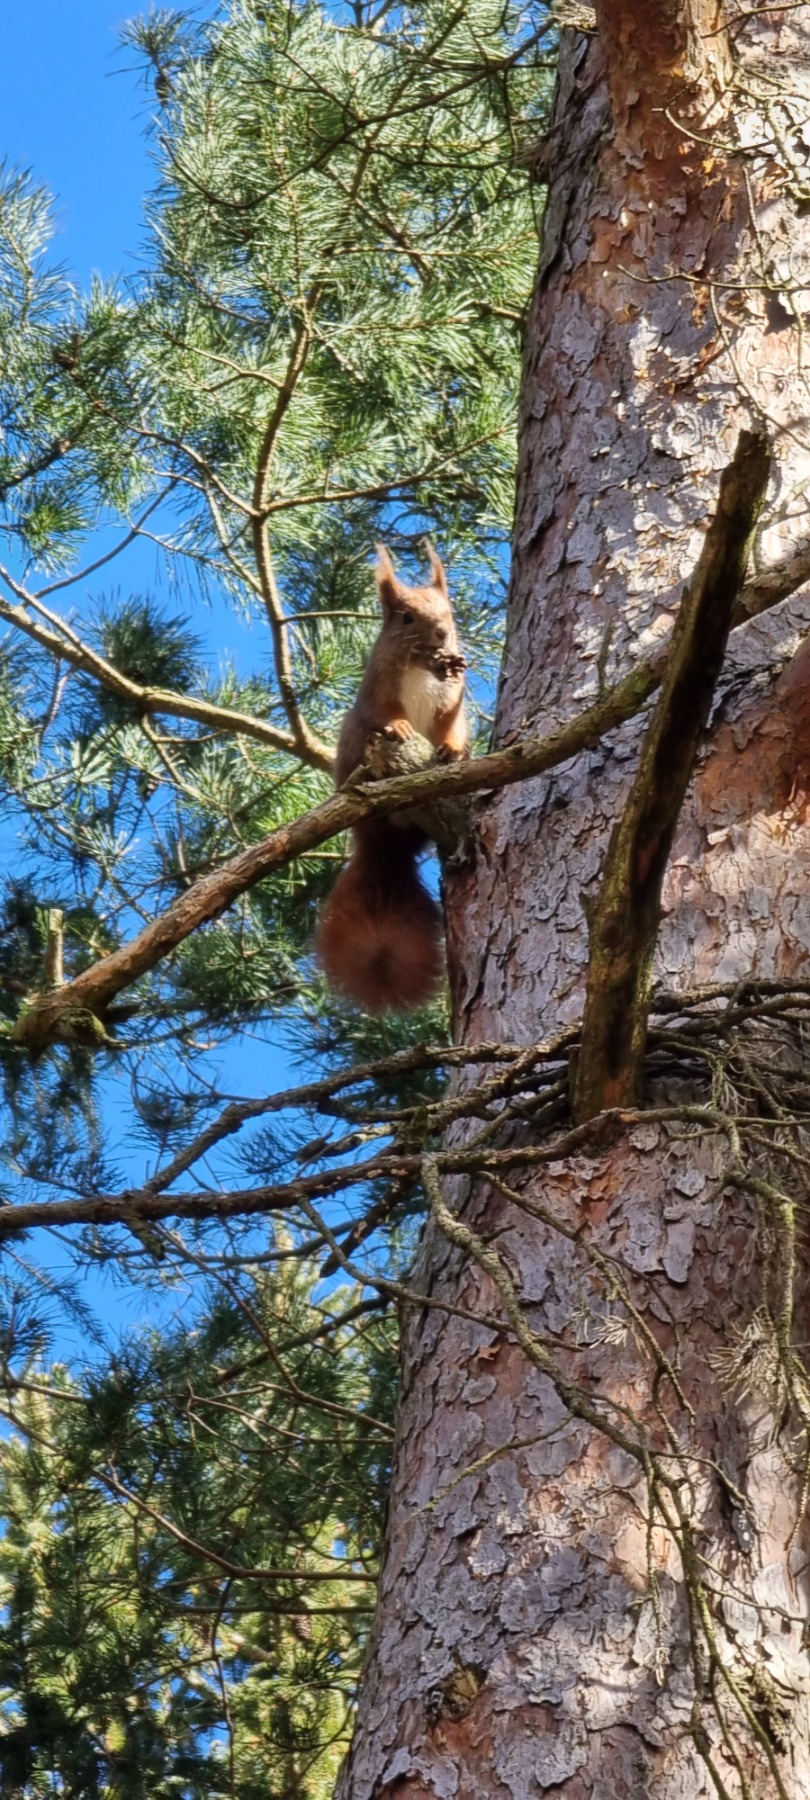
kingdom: Animalia
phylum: Chordata
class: Mammalia
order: Rodentia
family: Sciuridae
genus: Sciurus
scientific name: Sciurus vulgaris
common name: Egern
